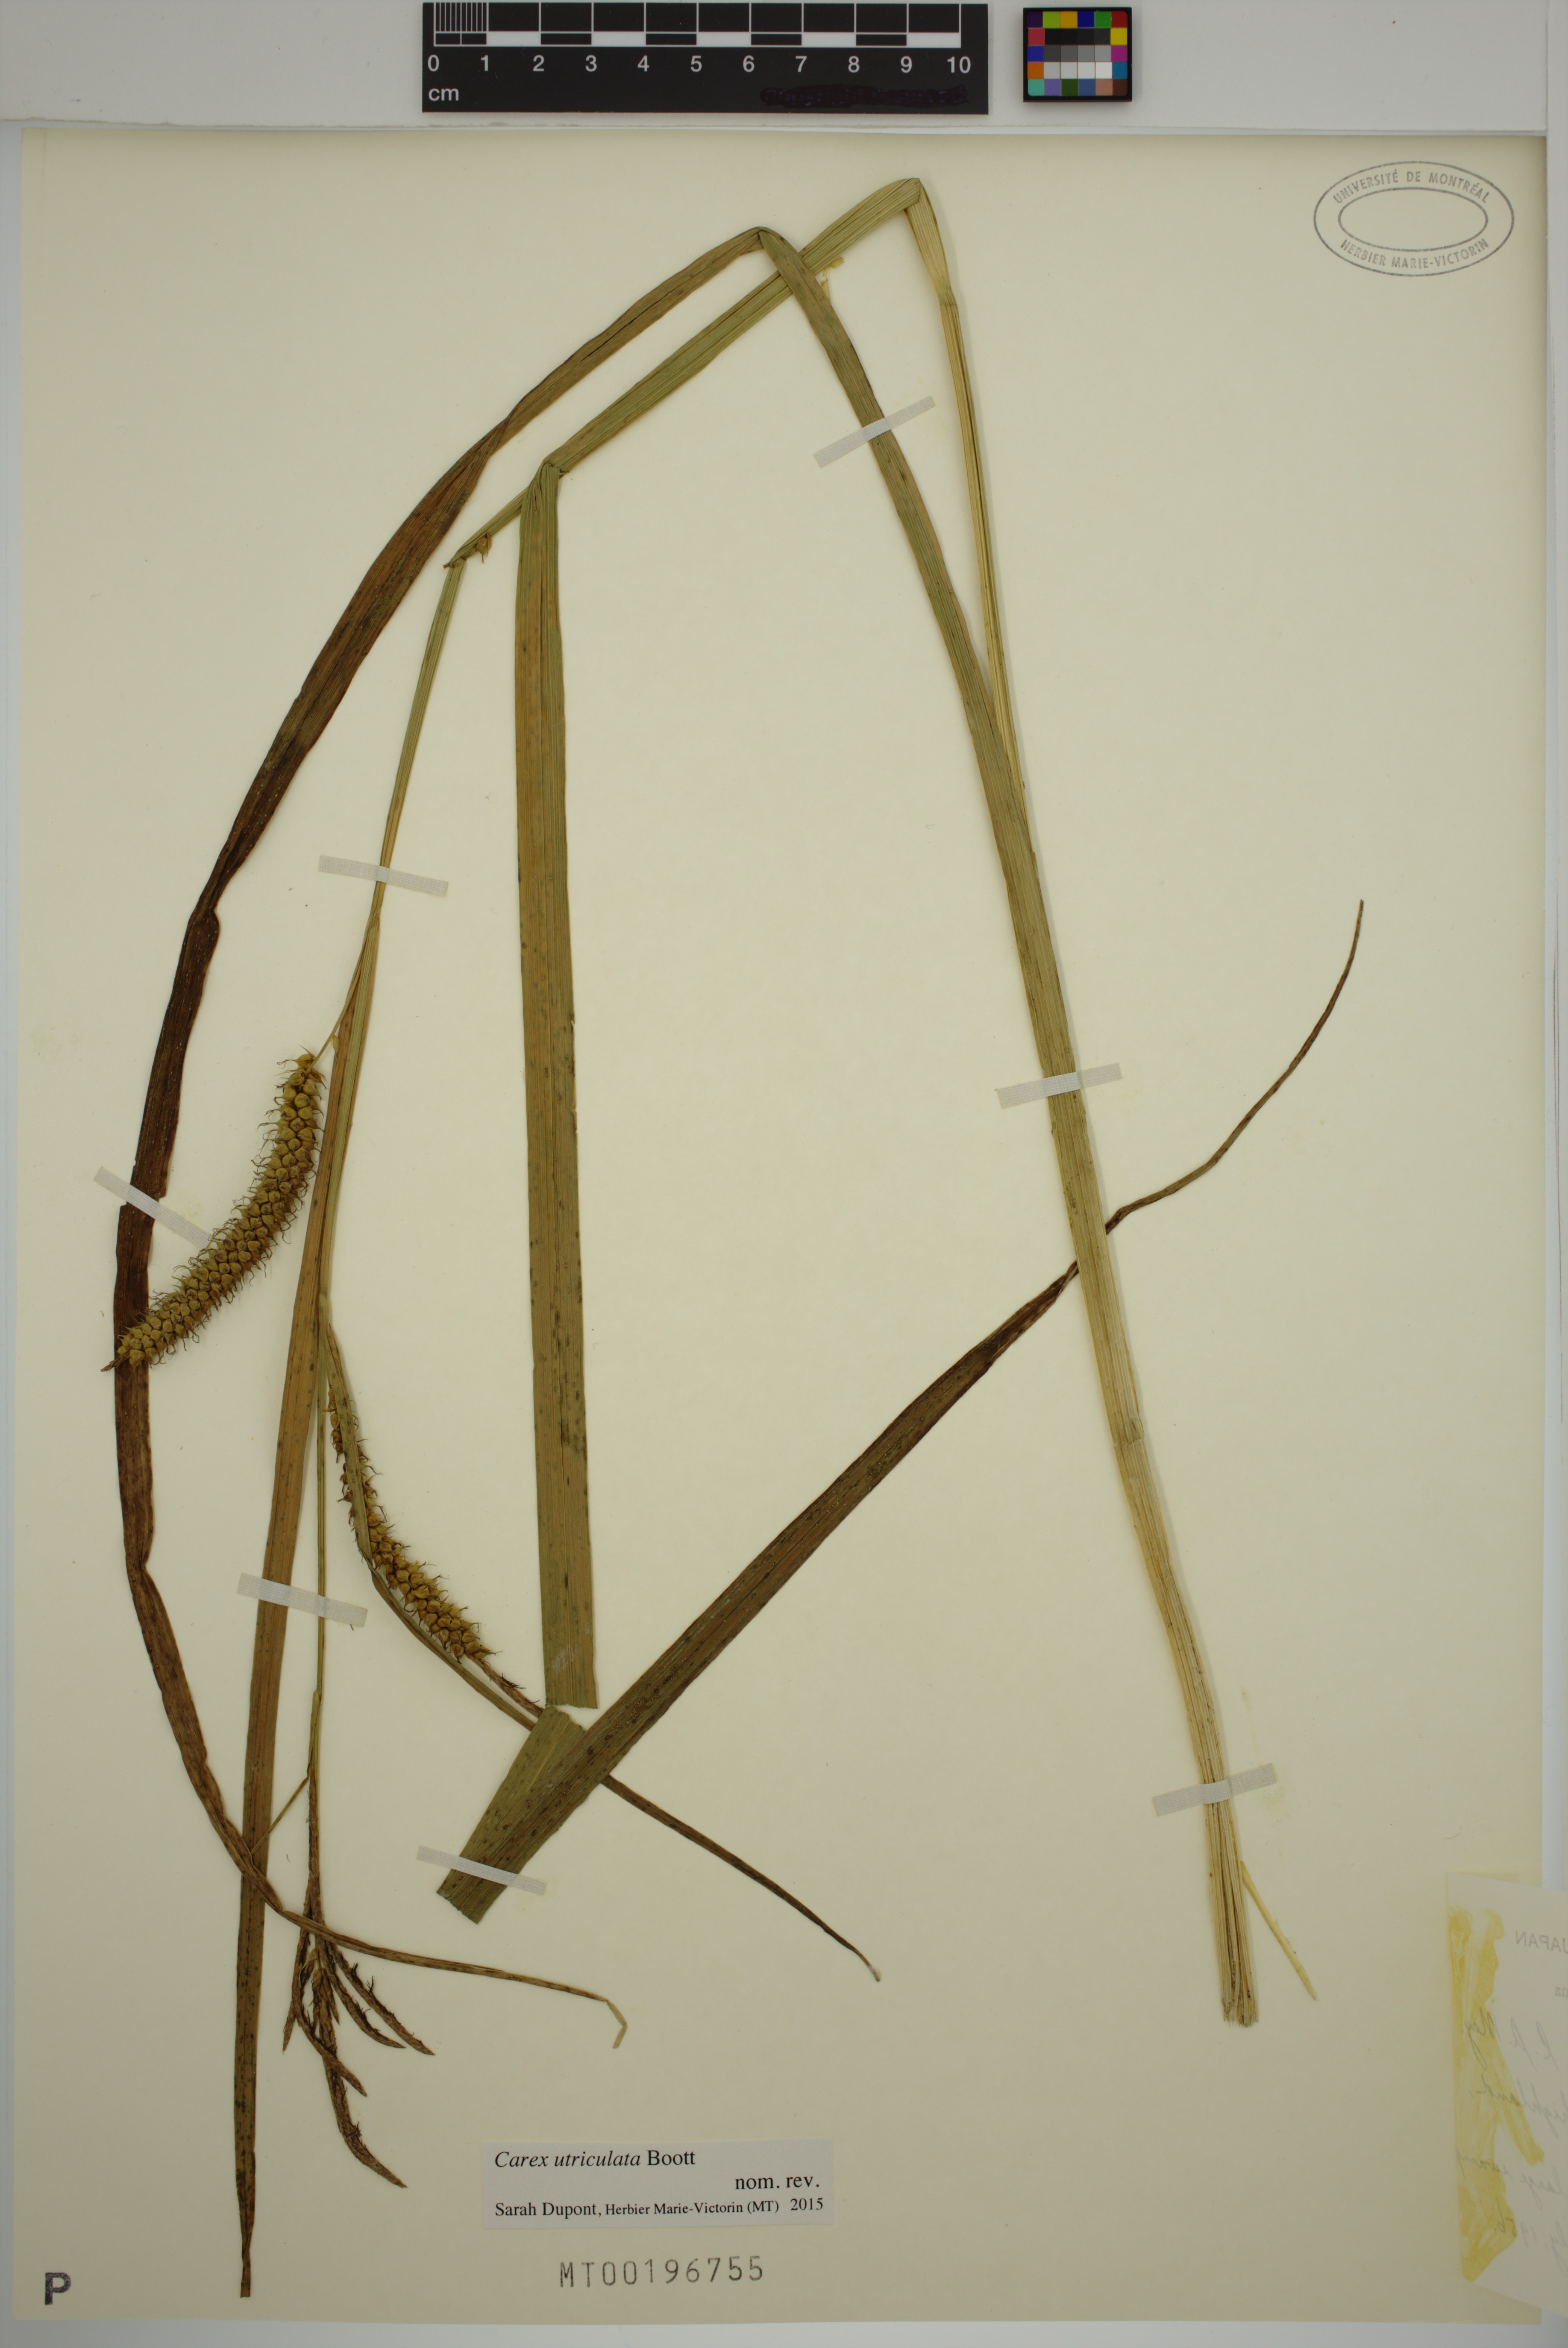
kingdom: Plantae
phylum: Tracheophyta
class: Liliopsida
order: Poales
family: Cyperaceae
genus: Carex
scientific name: Carex utriculata
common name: Beaked sedge
